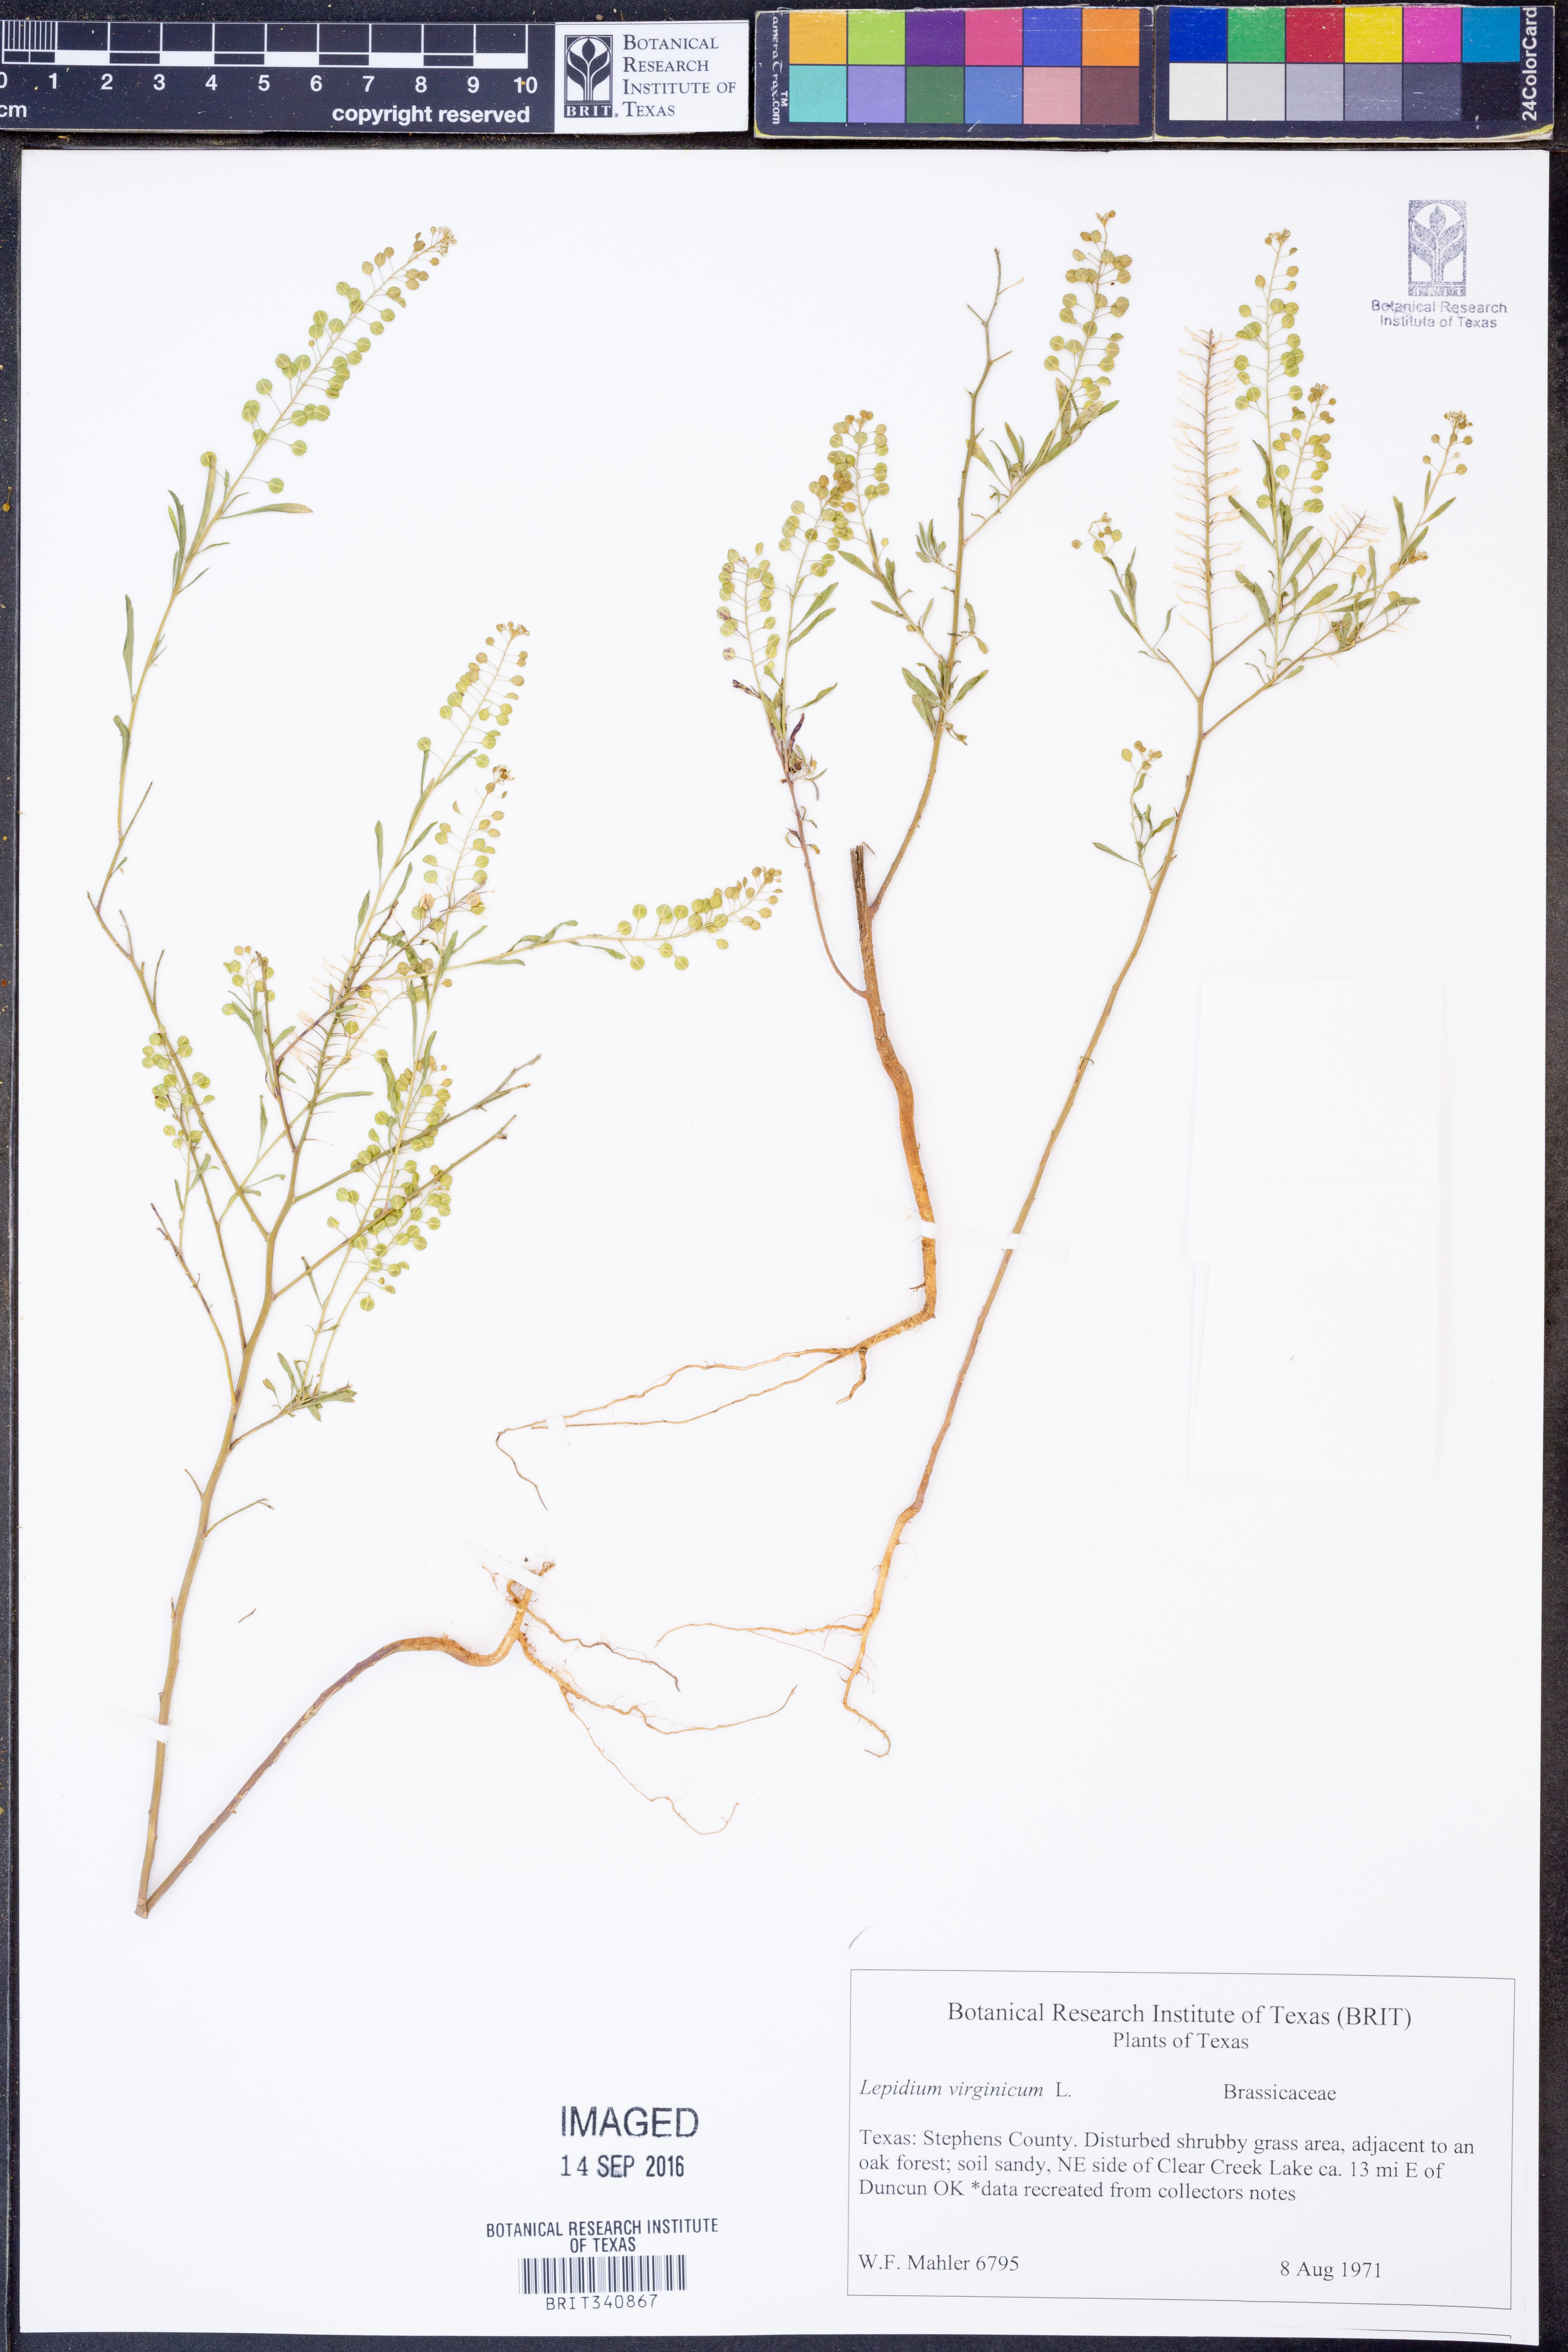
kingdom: Plantae
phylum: Tracheophyta
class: Magnoliopsida
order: Brassicales
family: Brassicaceae
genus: Lepidium
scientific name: Lepidium virginicum
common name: Least pepperwort
